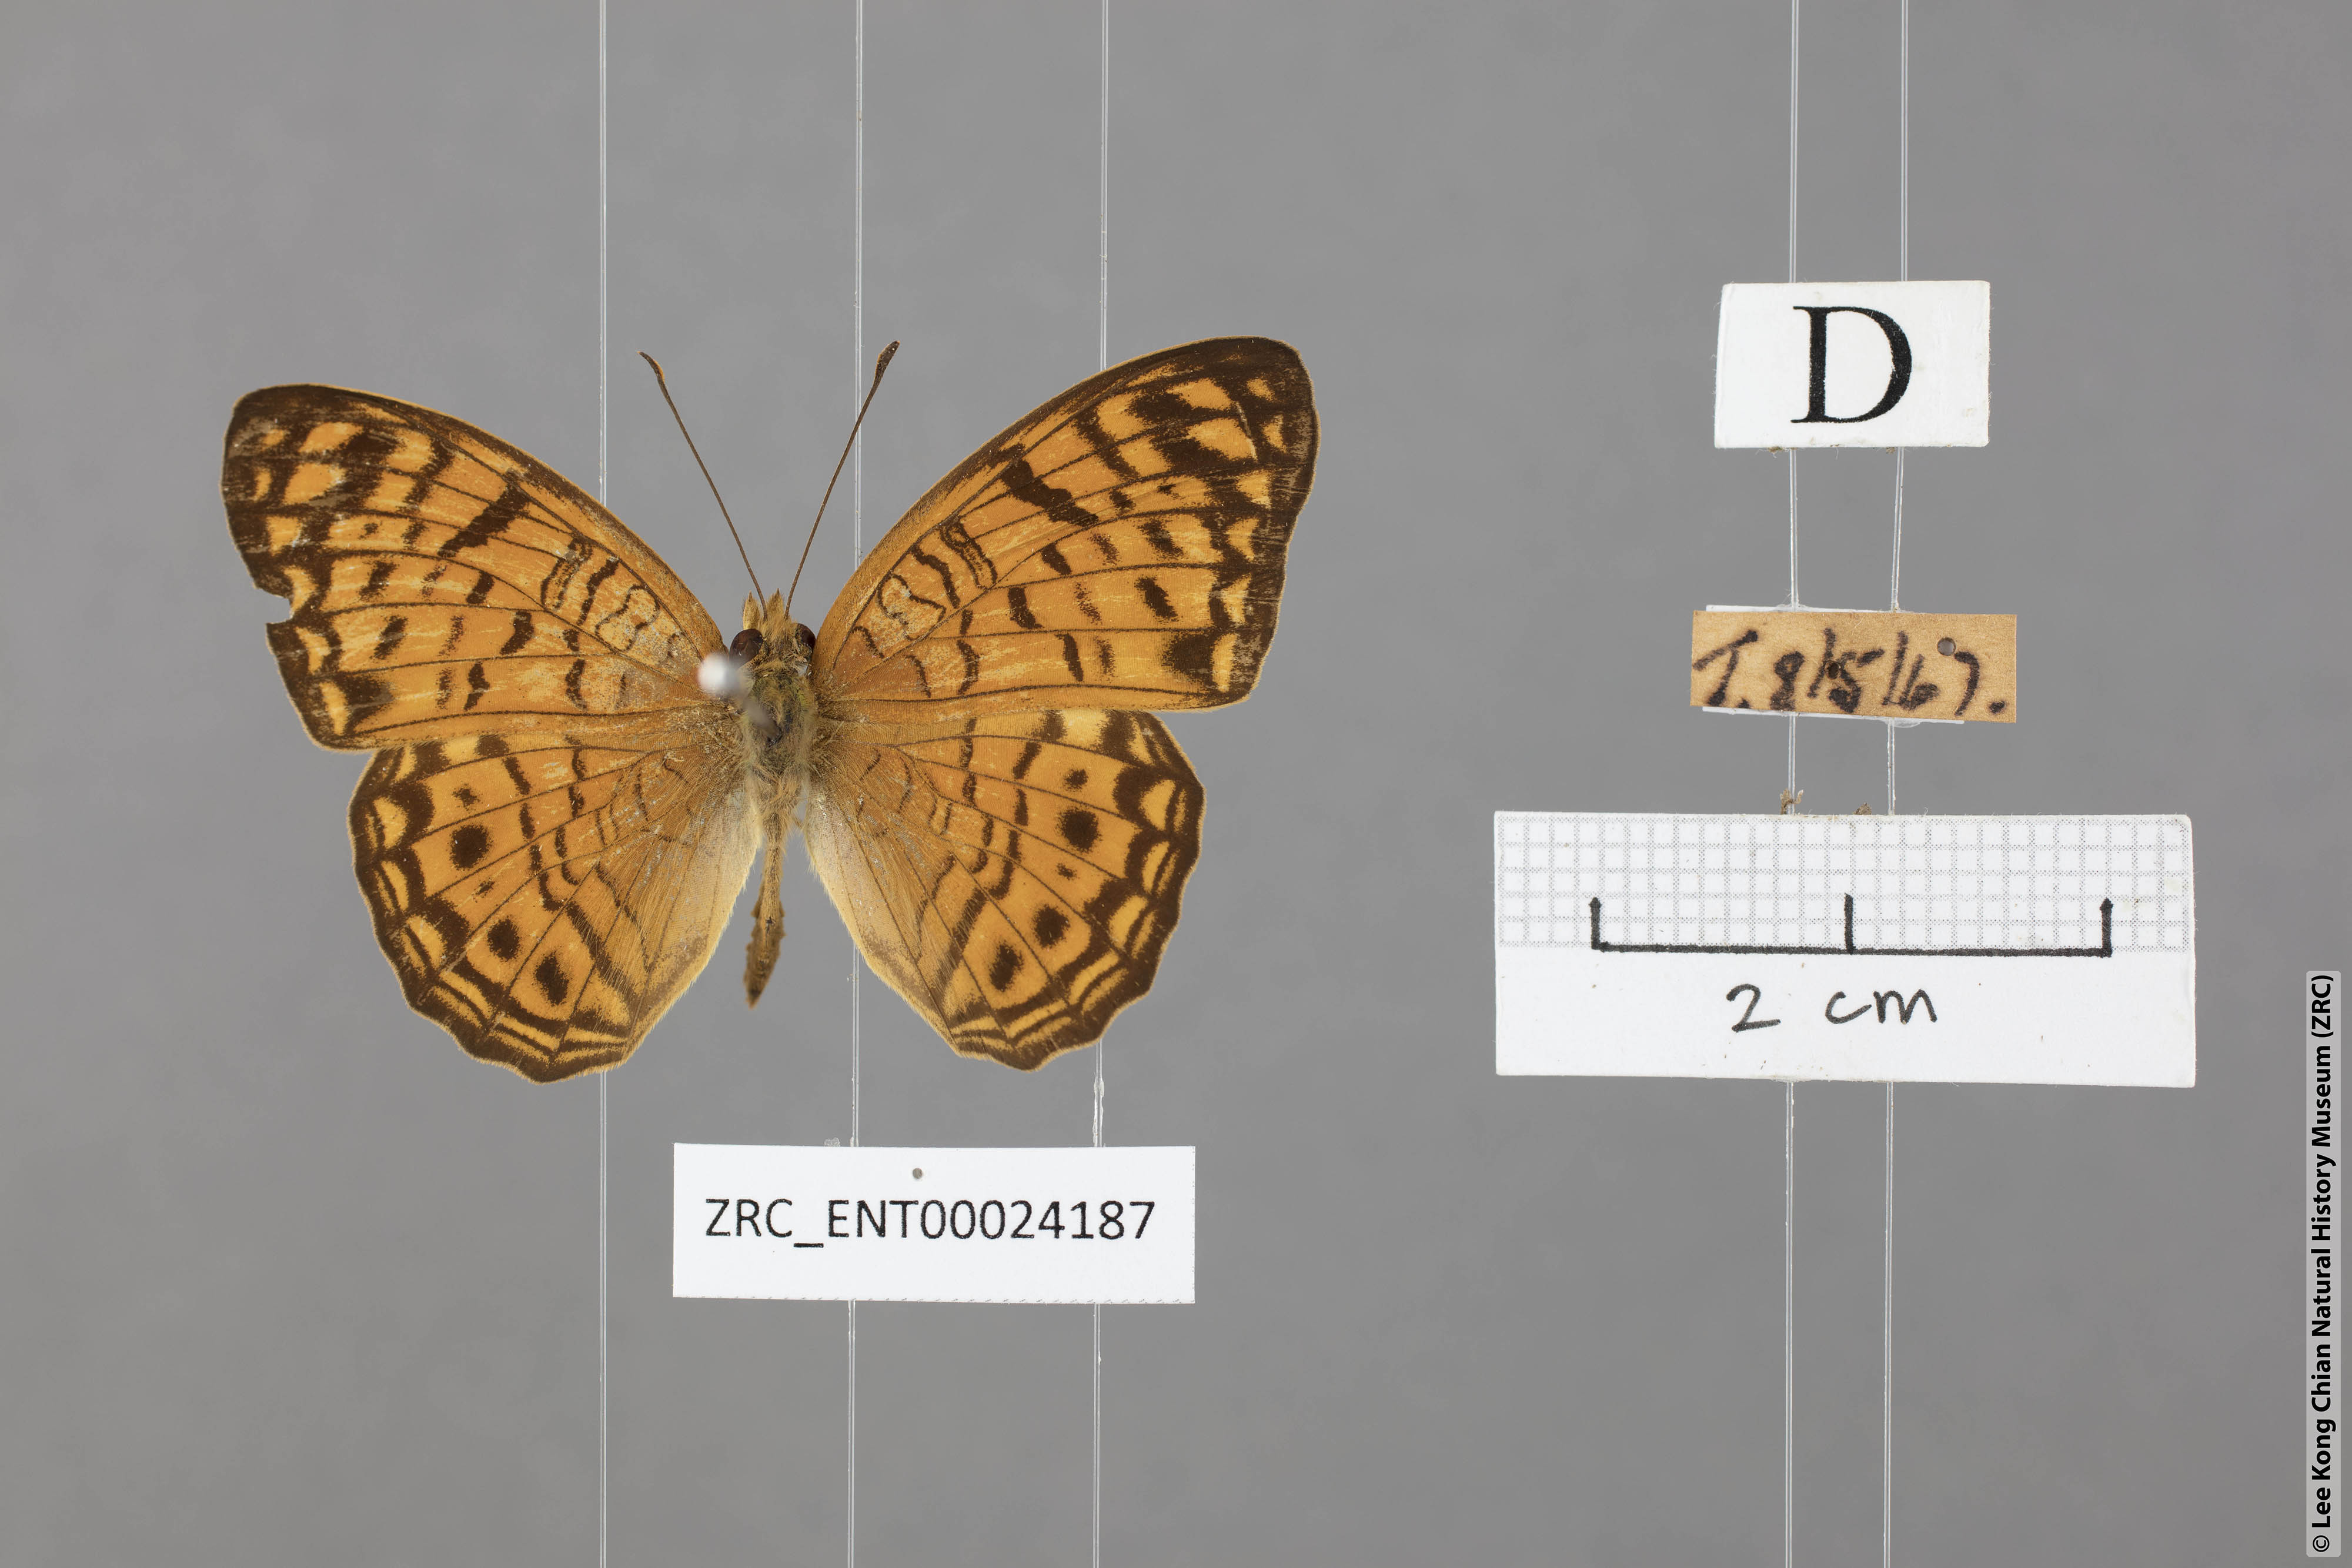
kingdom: Animalia
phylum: Arthropoda
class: Insecta
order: Lepidoptera
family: Nymphalidae
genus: Phalanta
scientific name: Phalanta alcippe
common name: Small leopard
